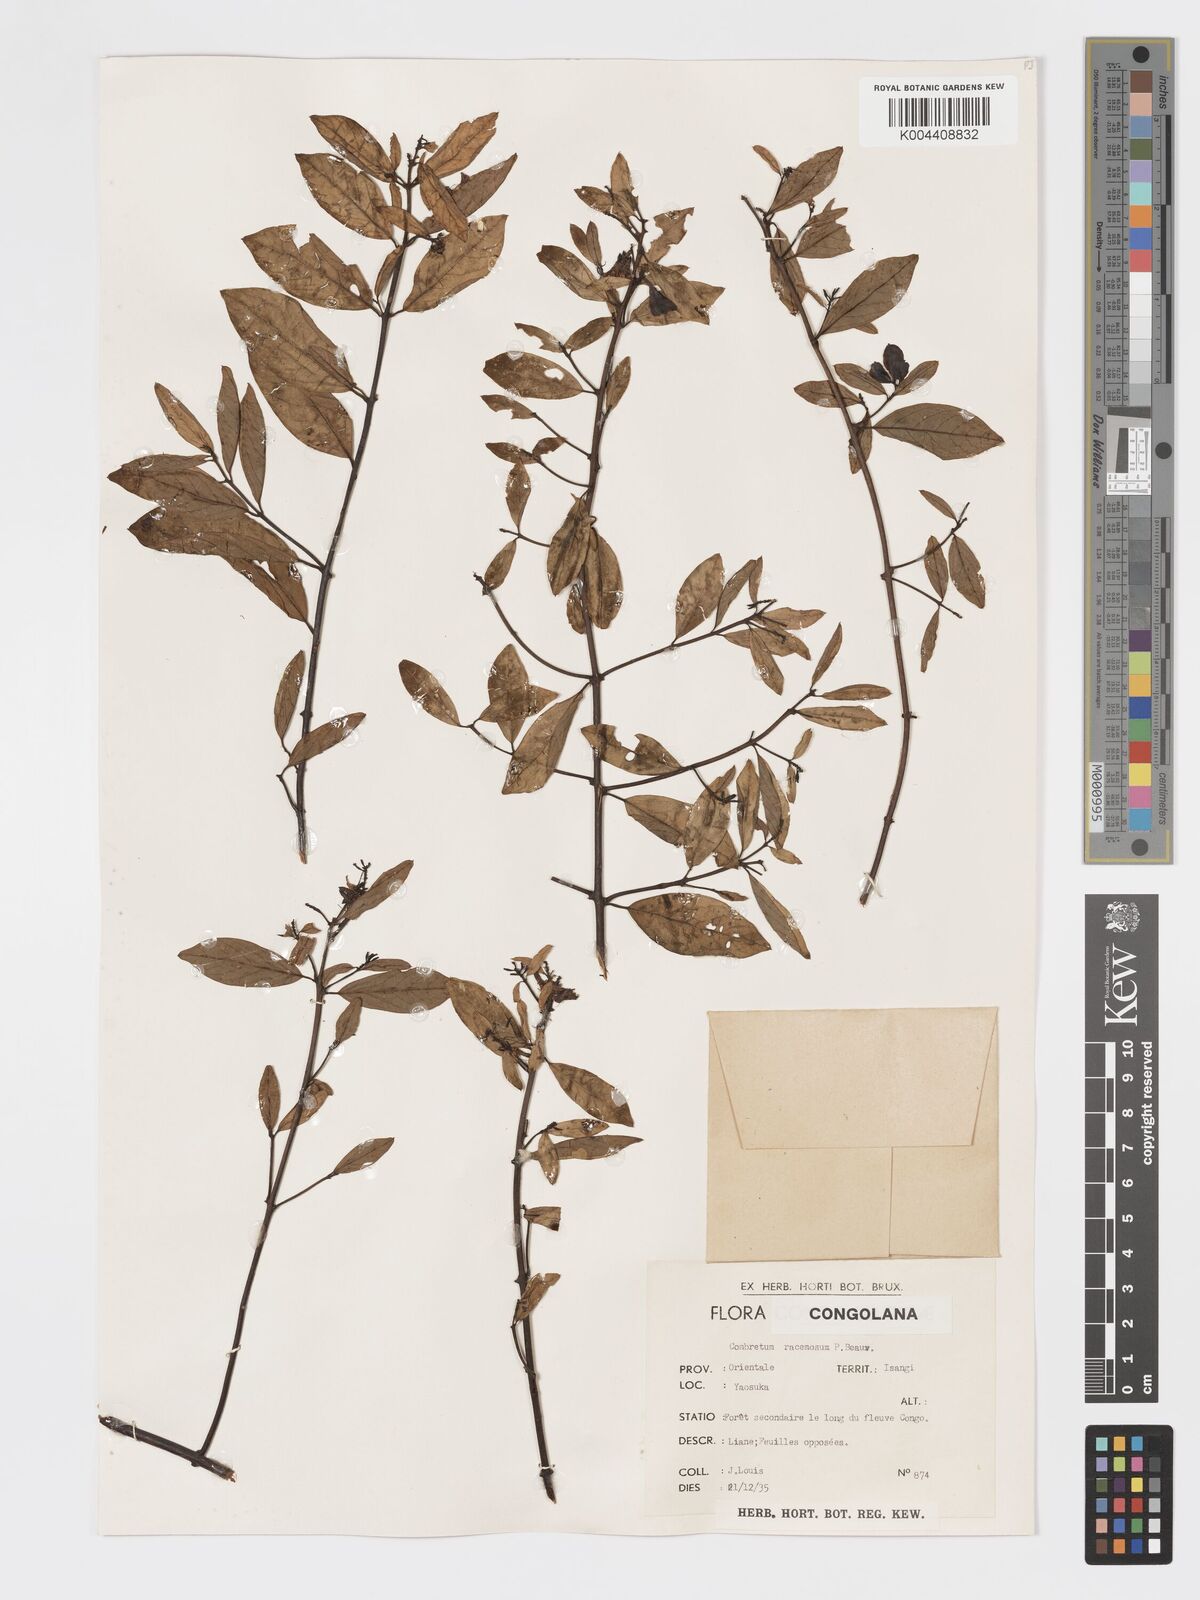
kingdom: Plantae
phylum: Tracheophyta
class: Magnoliopsida
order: Myrtales
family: Combretaceae
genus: Combretum
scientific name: Combretum racemosum
